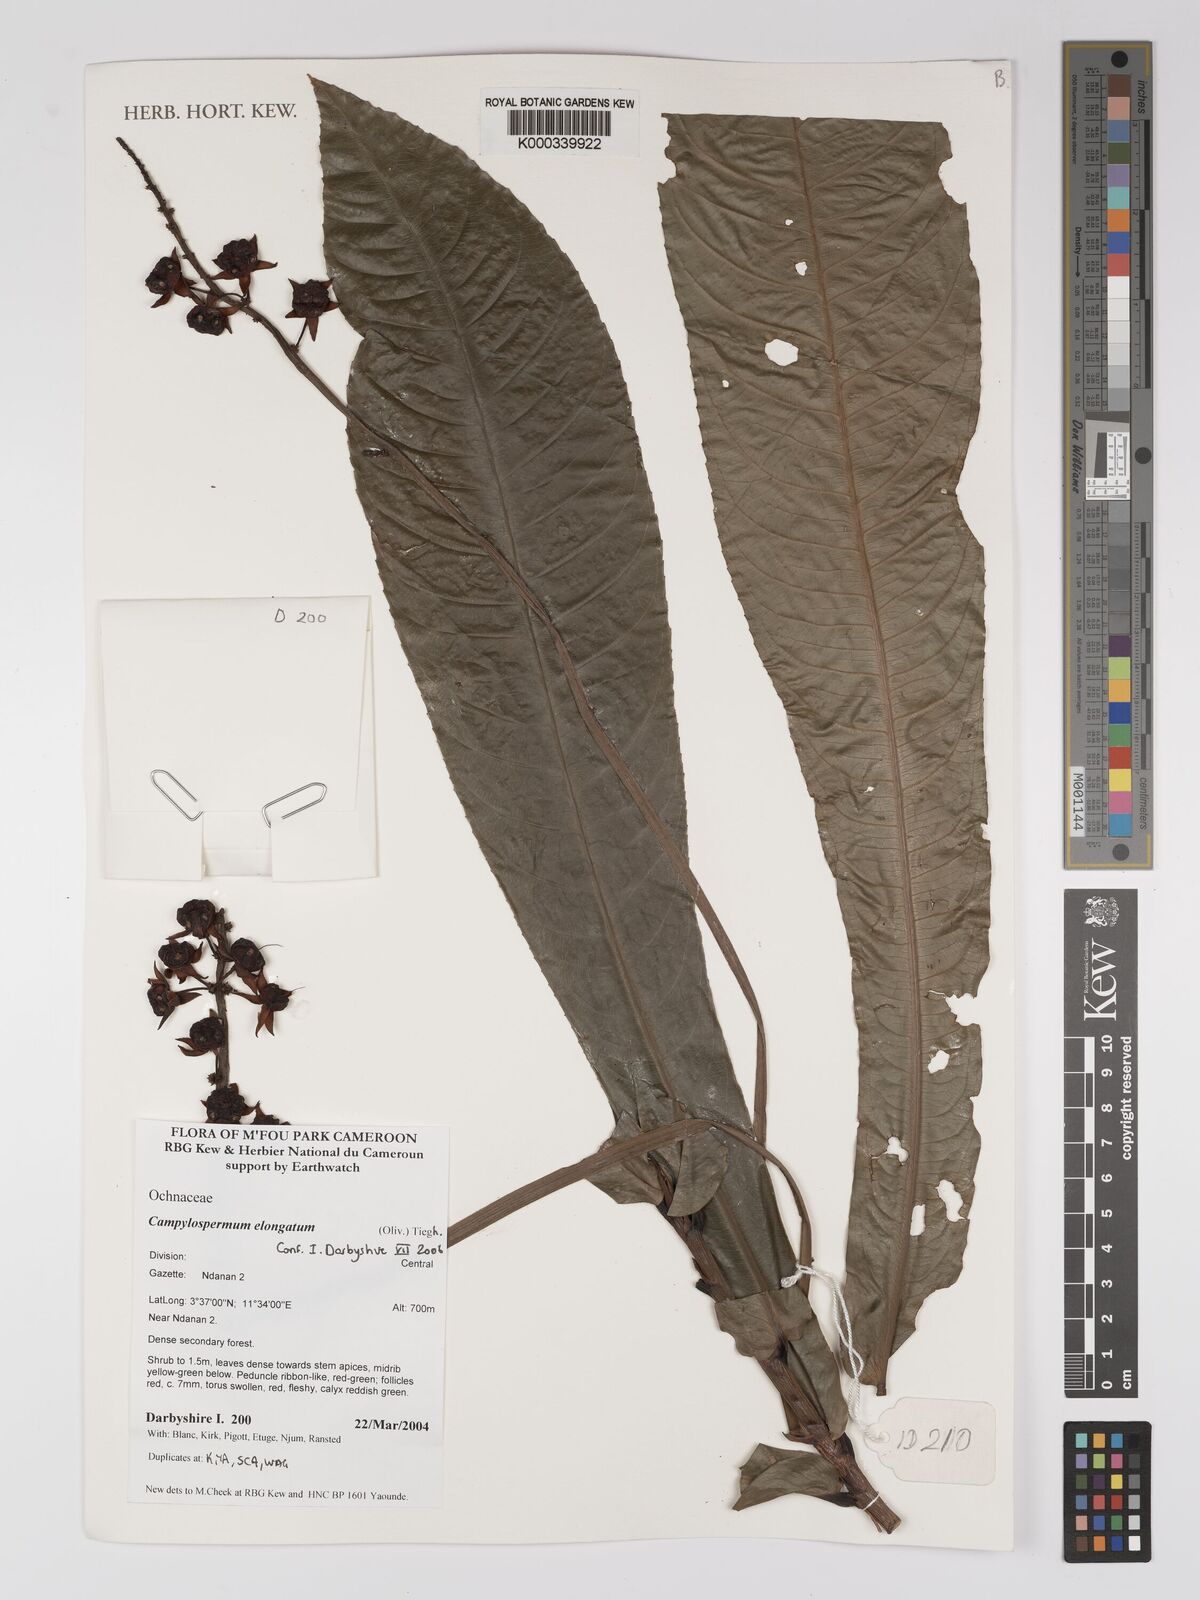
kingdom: Plantae
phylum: Tracheophyta
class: Magnoliopsida
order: Malpighiales
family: Ochnaceae
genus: Gomphia
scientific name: Gomphia elongata
